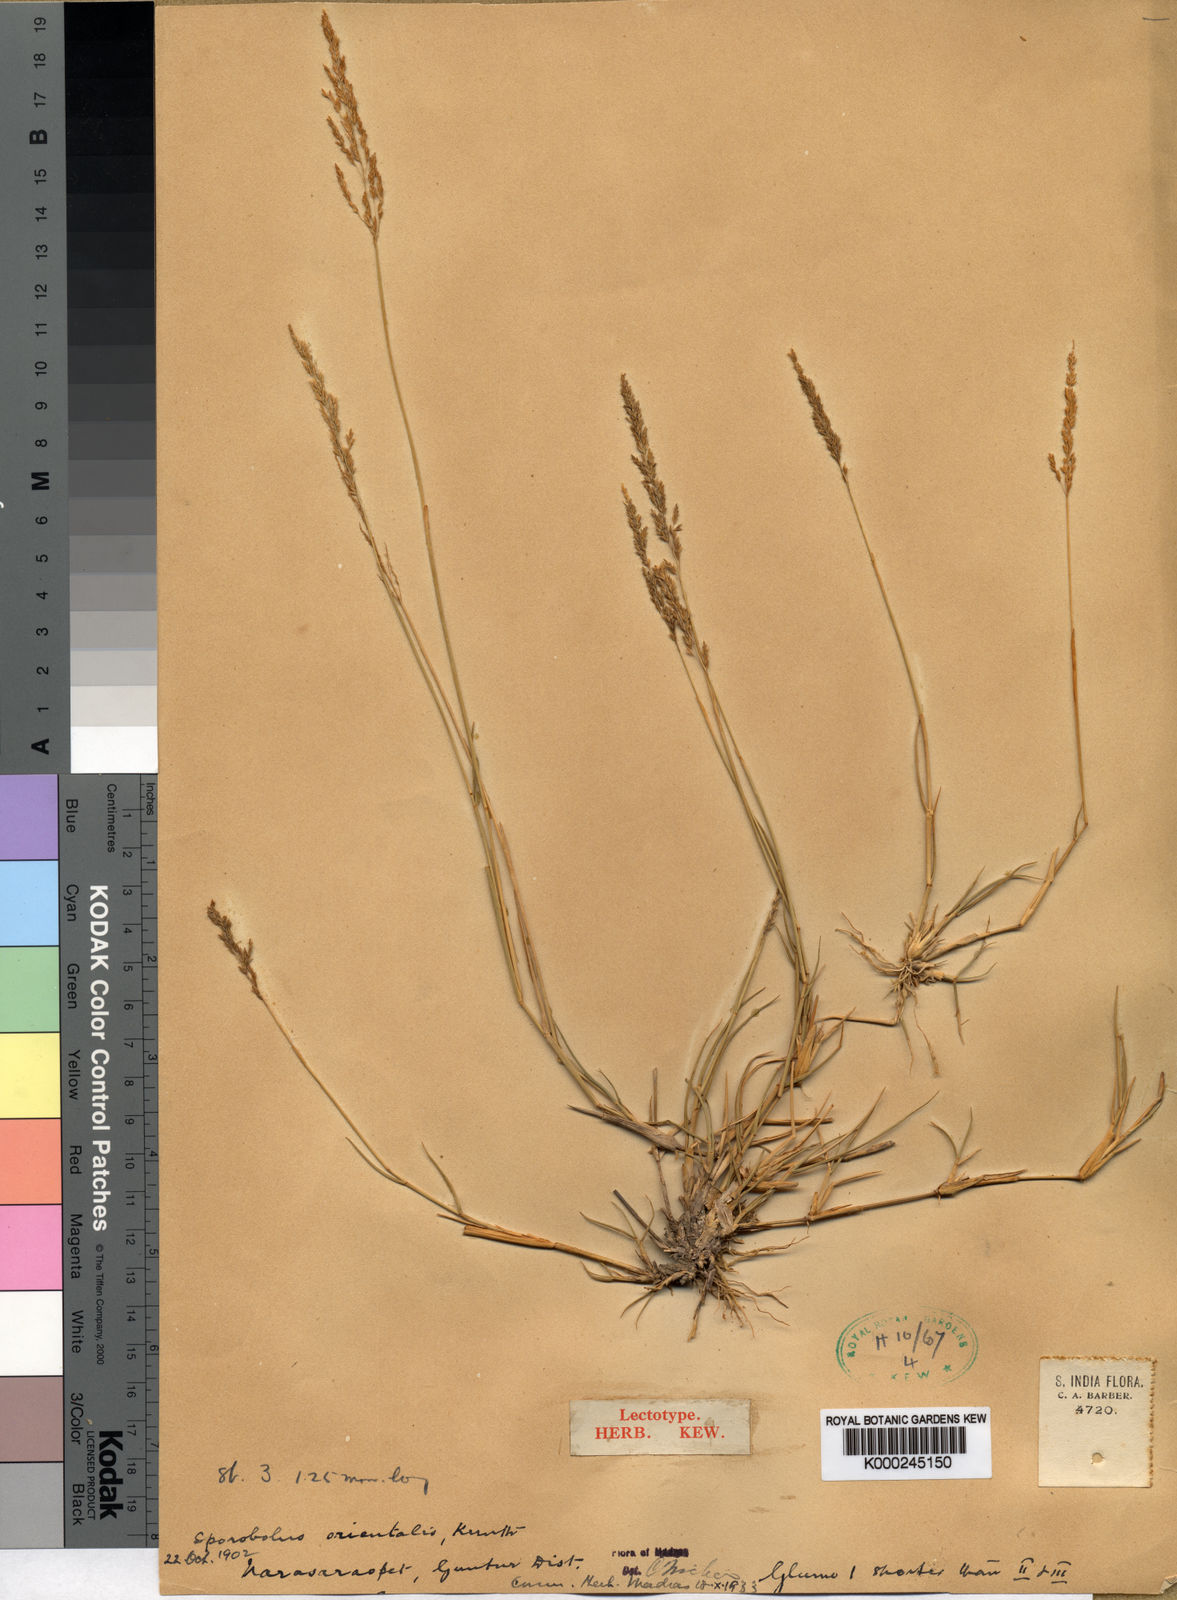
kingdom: Plantae
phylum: Tracheophyta
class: Liliopsida
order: Poales
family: Poaceae
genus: Sporobolus
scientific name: Sporobolus maderaspatanus
